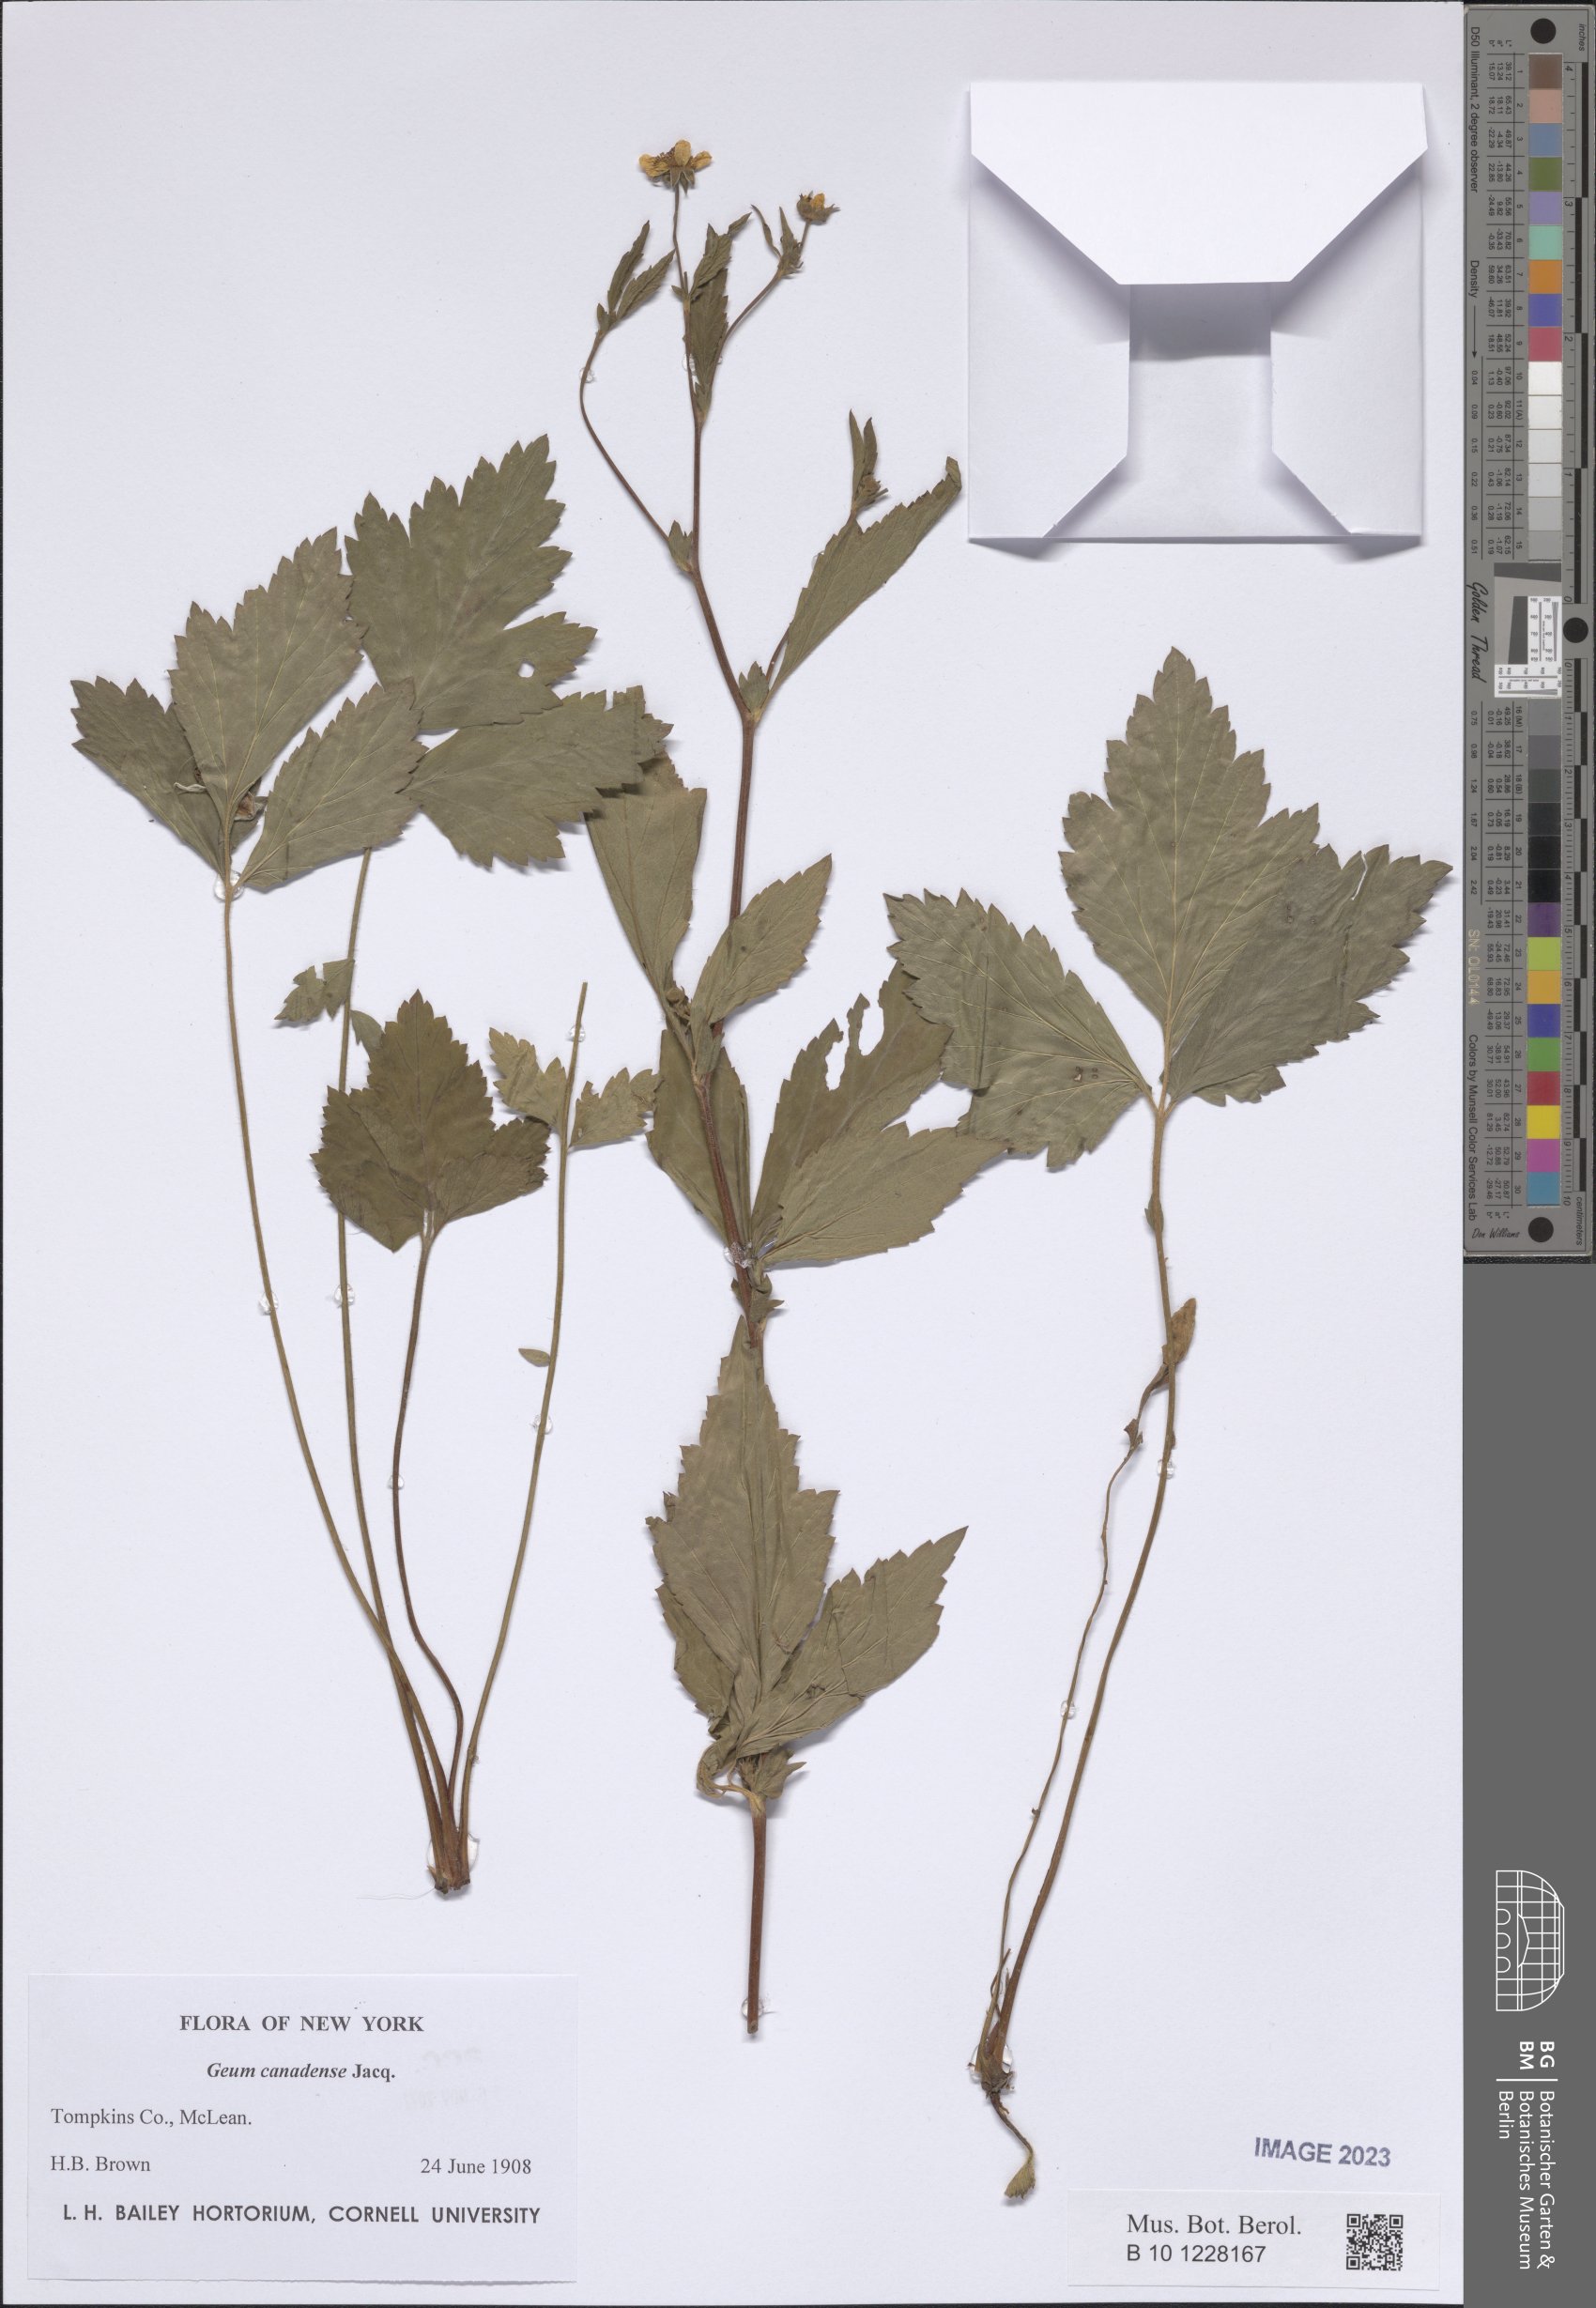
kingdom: Plantae
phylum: Tracheophyta
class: Magnoliopsida
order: Rosales
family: Rosaceae
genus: Geum
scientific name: Geum canadense
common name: White avens
